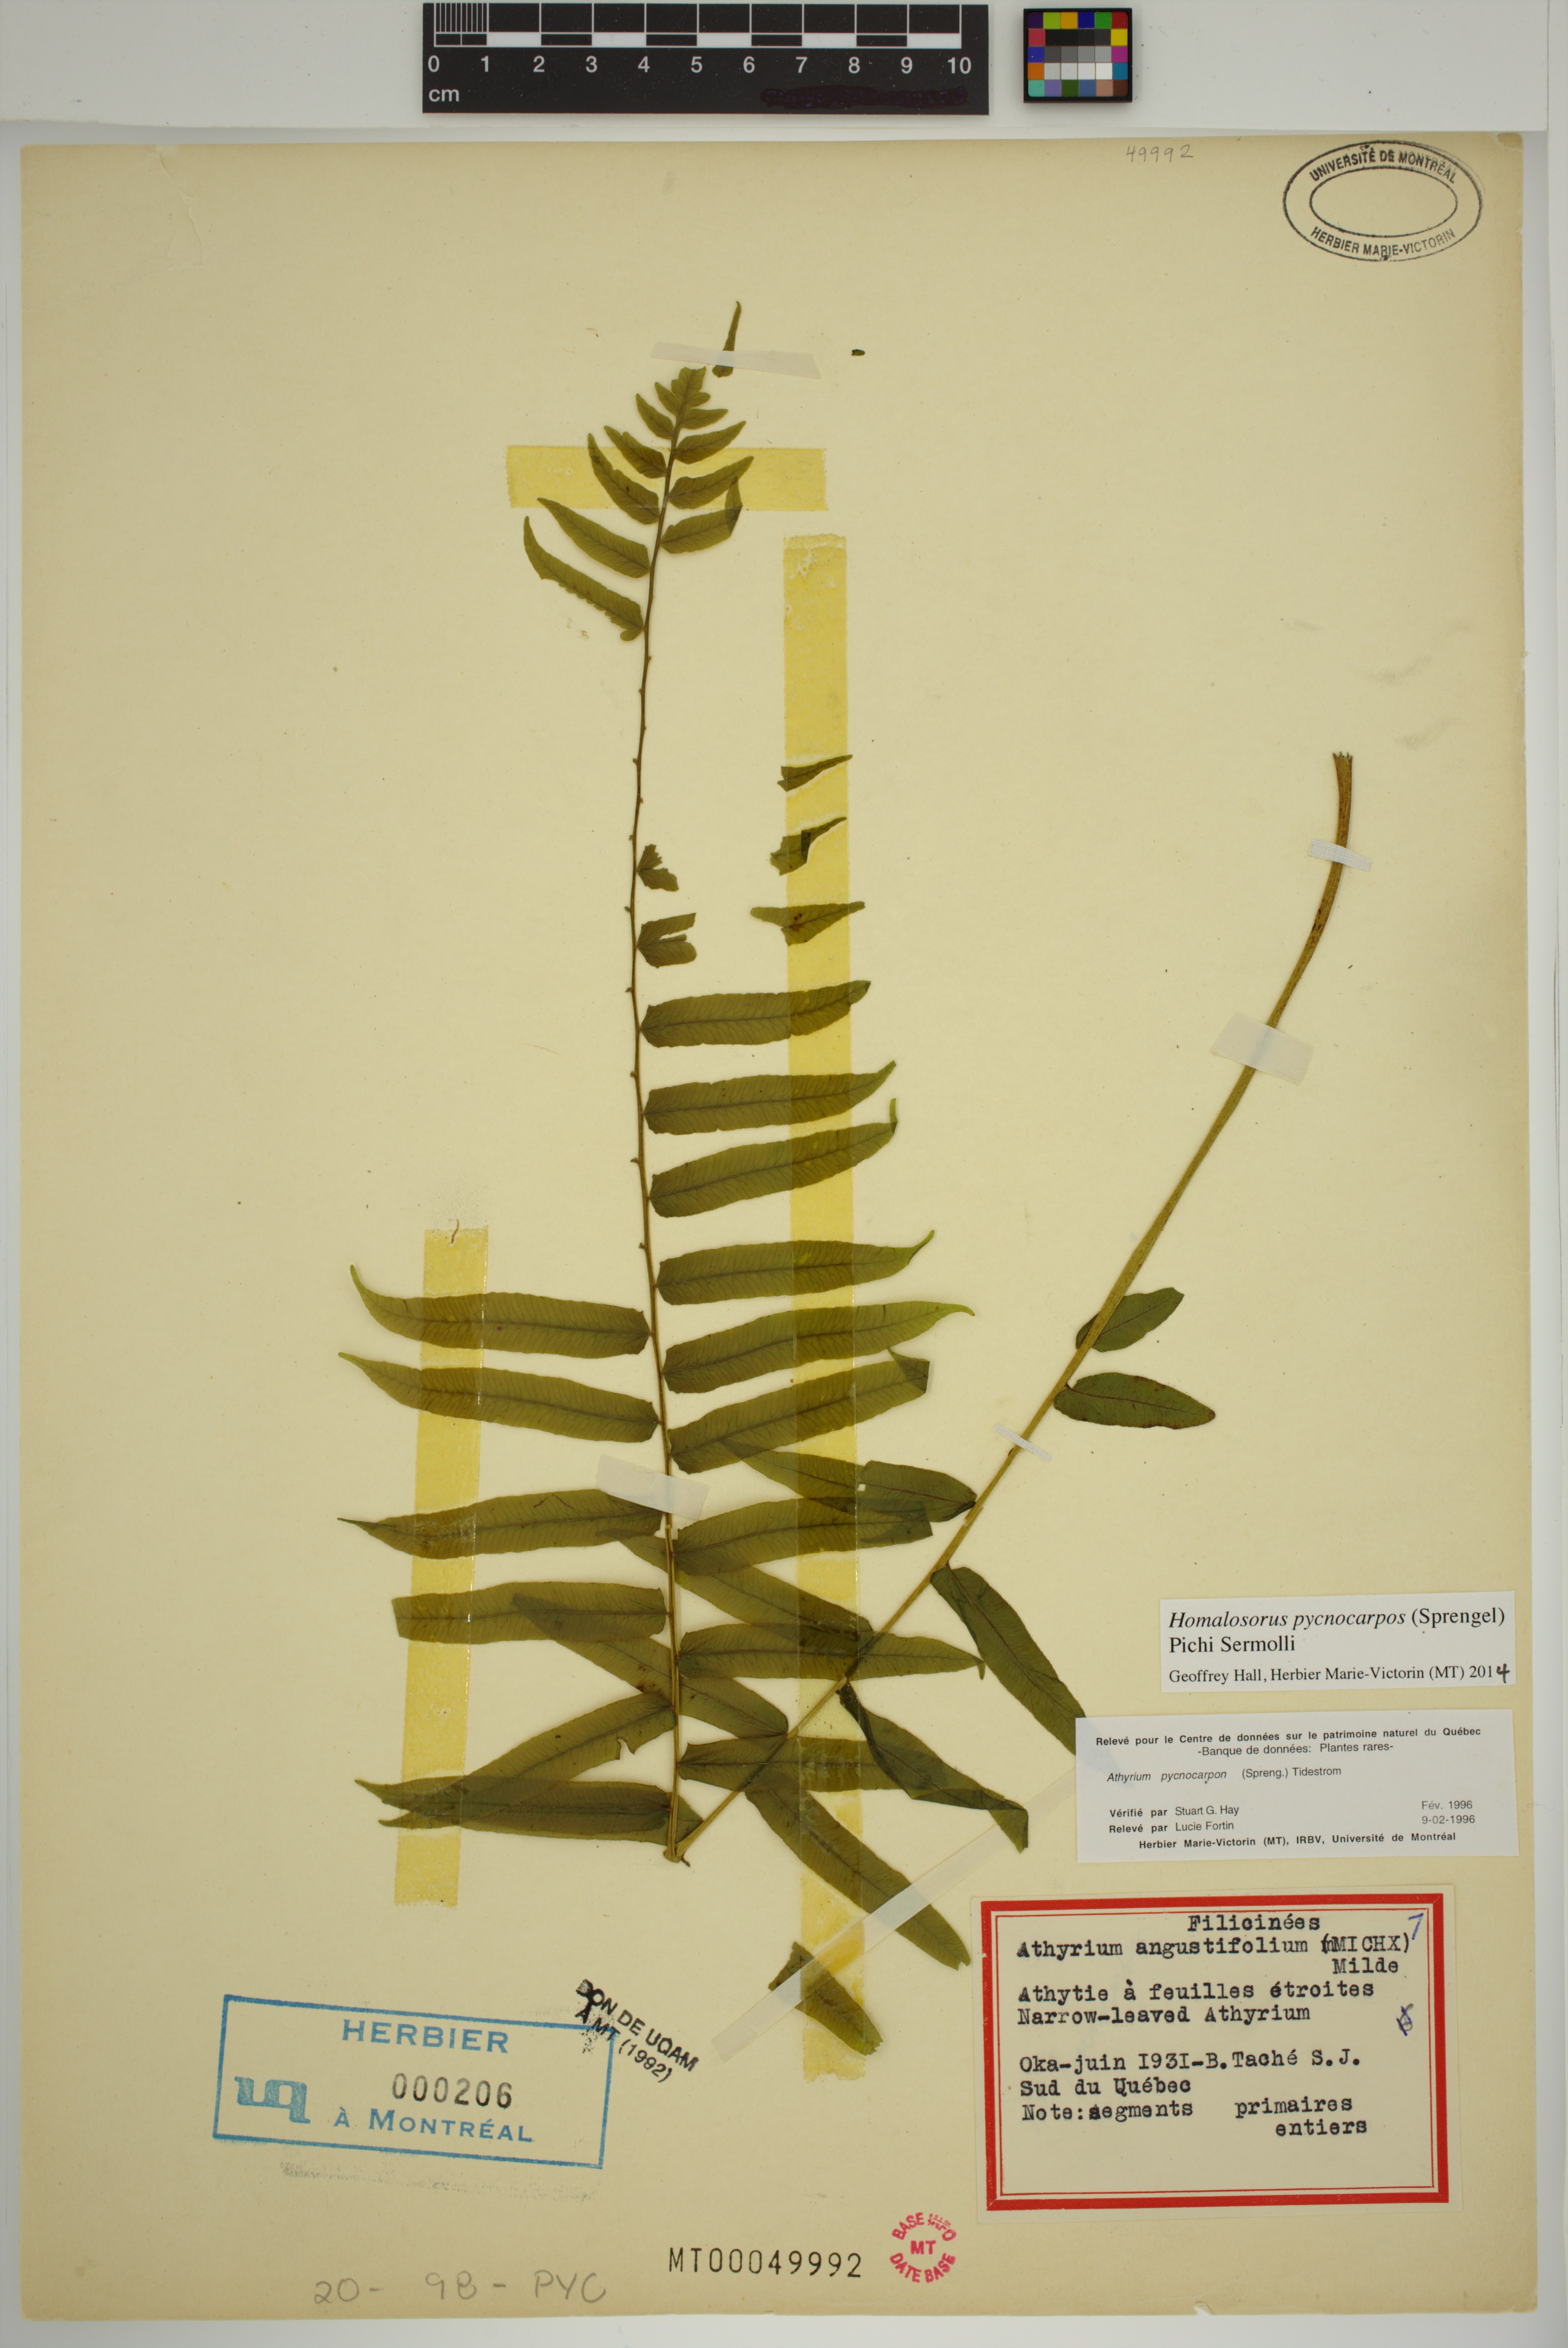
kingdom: Plantae
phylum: Tracheophyta
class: Polypodiopsida
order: Polypodiales
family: Diplaziopsidaceae
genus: Homalosorus
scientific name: Homalosorus pycnocarpos
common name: Glade fern
